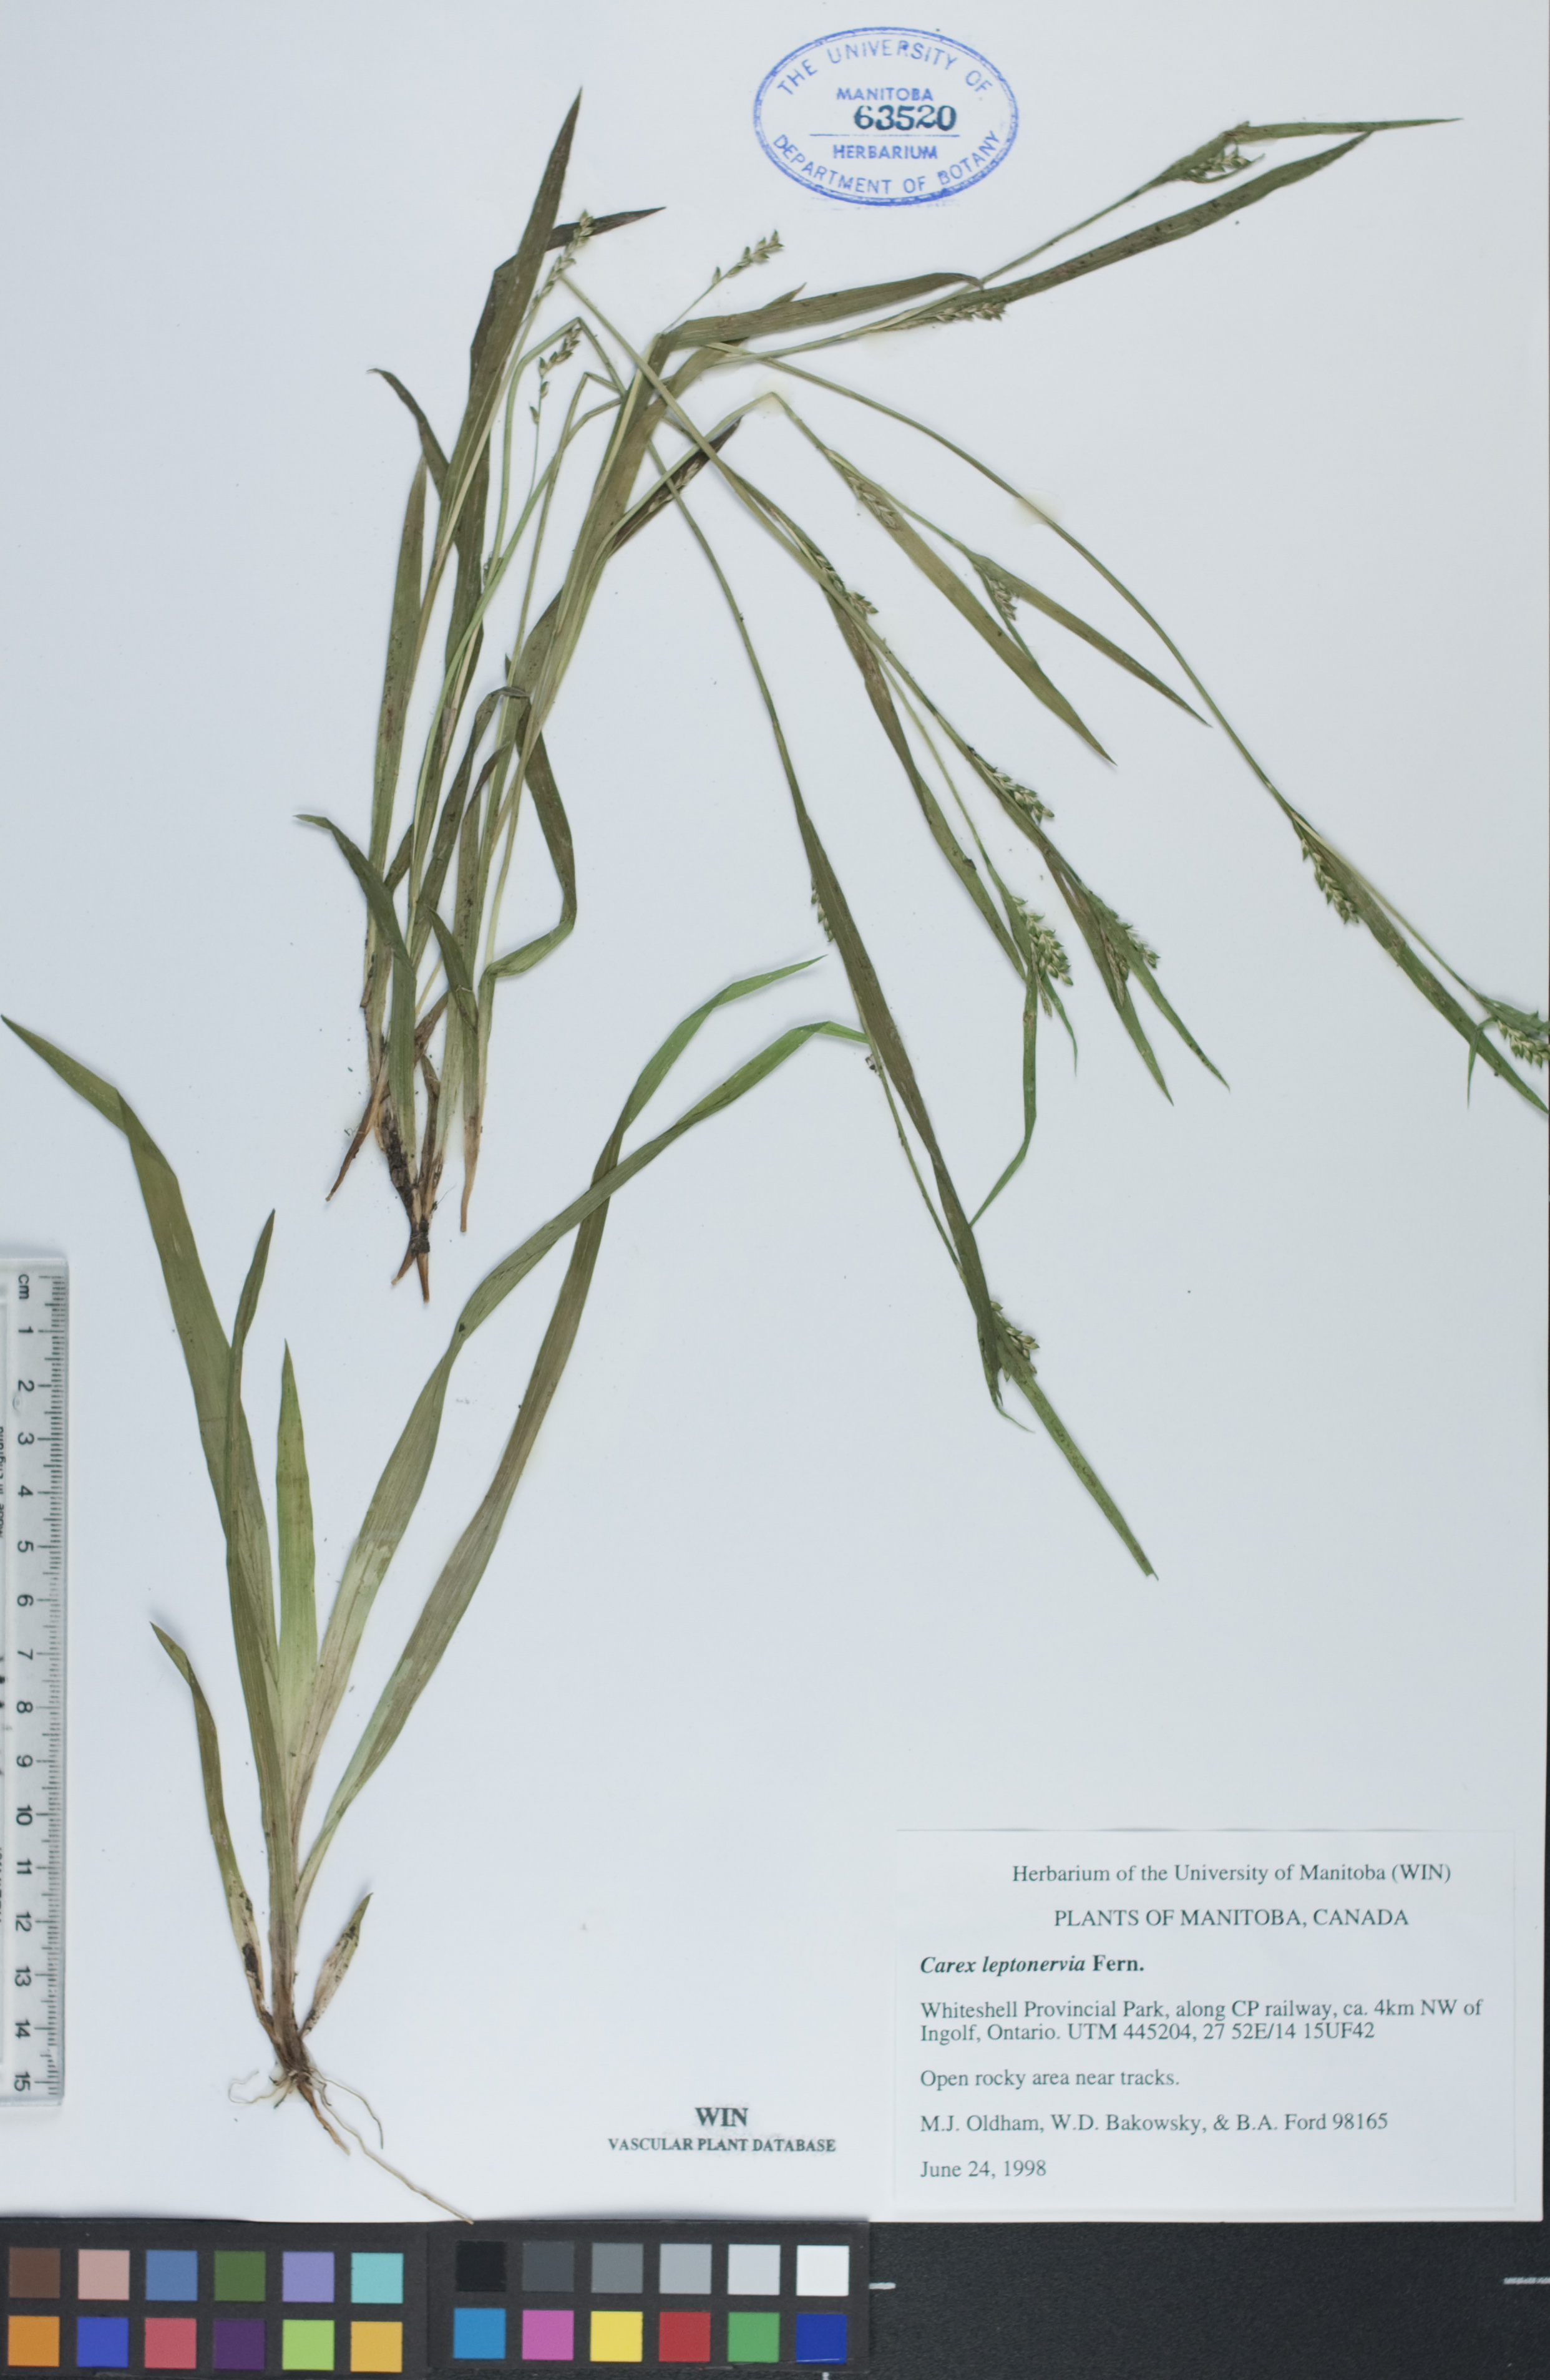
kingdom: Plantae
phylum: Tracheophyta
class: Liliopsida
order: Poales
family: Cyperaceae
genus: Carex
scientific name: Carex leptonervia
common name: Few-nerved wood sedge
